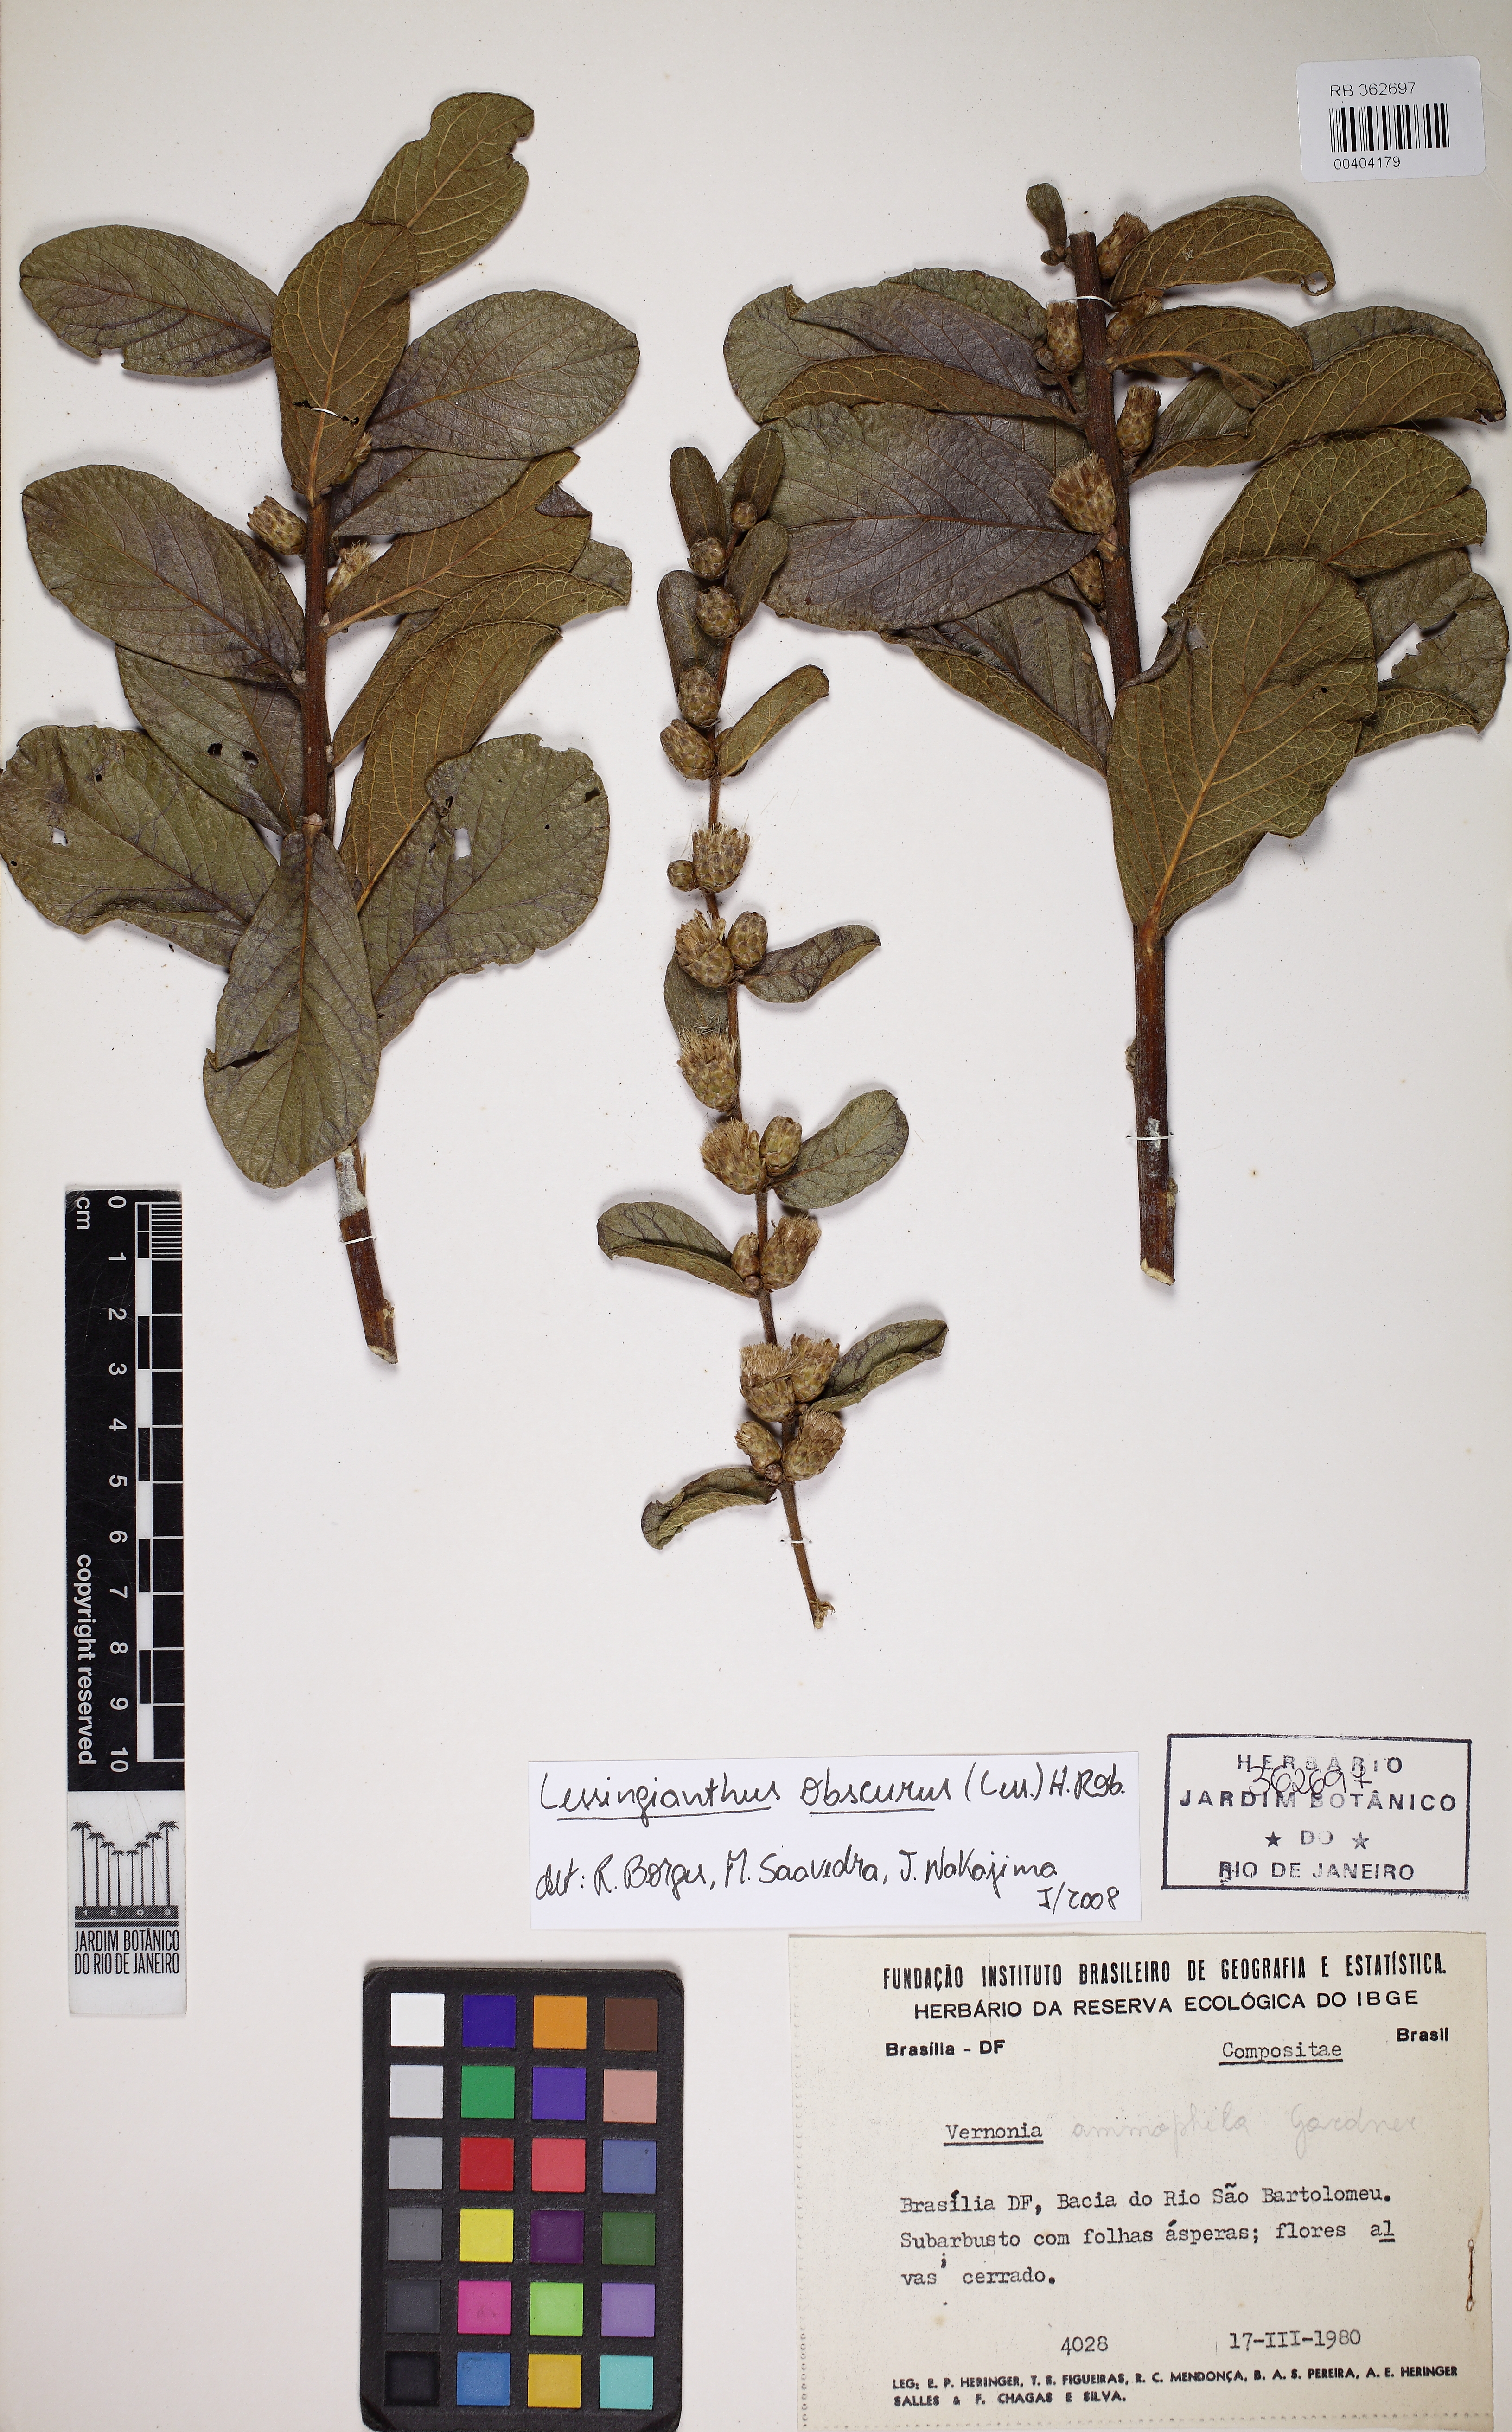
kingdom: Plantae
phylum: Tracheophyta
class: Magnoliopsida
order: Asterales
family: Asteraceae
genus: Lessingianthus
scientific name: Lessingianthus obscurus
